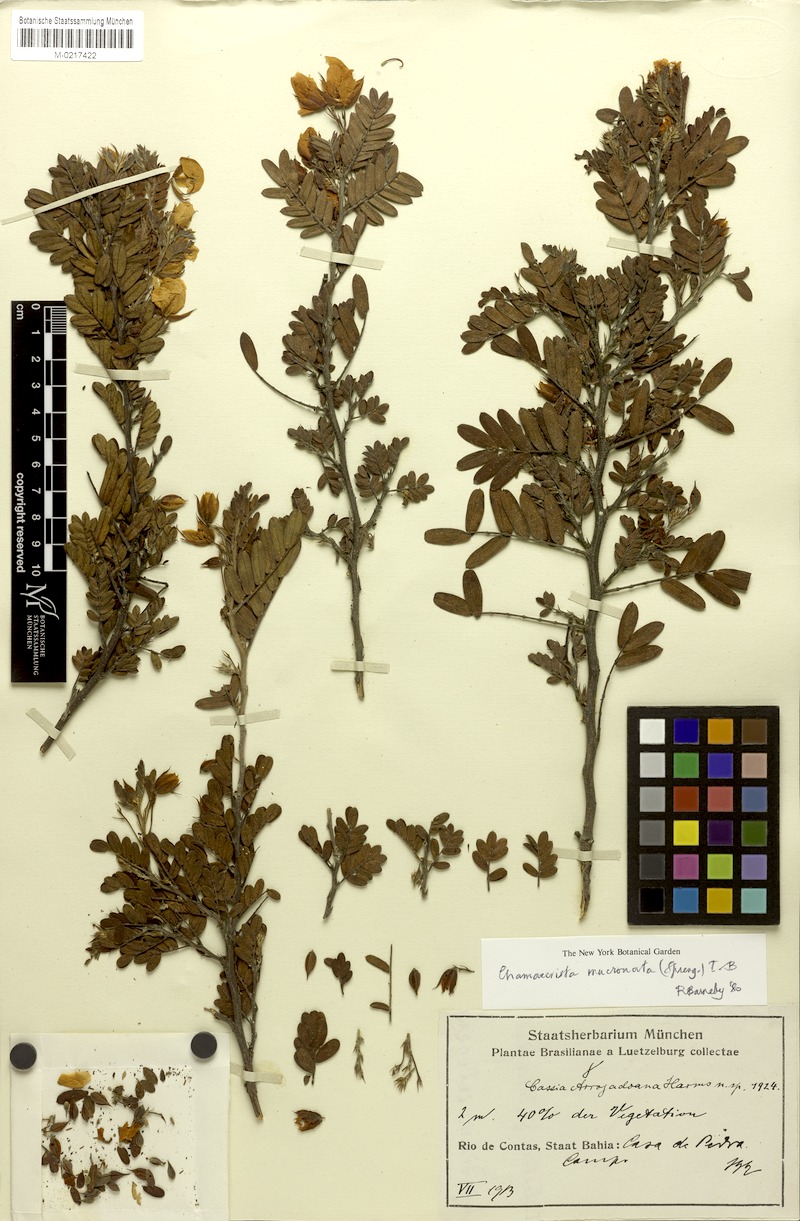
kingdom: Plantae
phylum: Tracheophyta
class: Magnoliopsida
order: Fabales
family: Fabaceae
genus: Chamaecrista
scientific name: Chamaecrista mucronata
